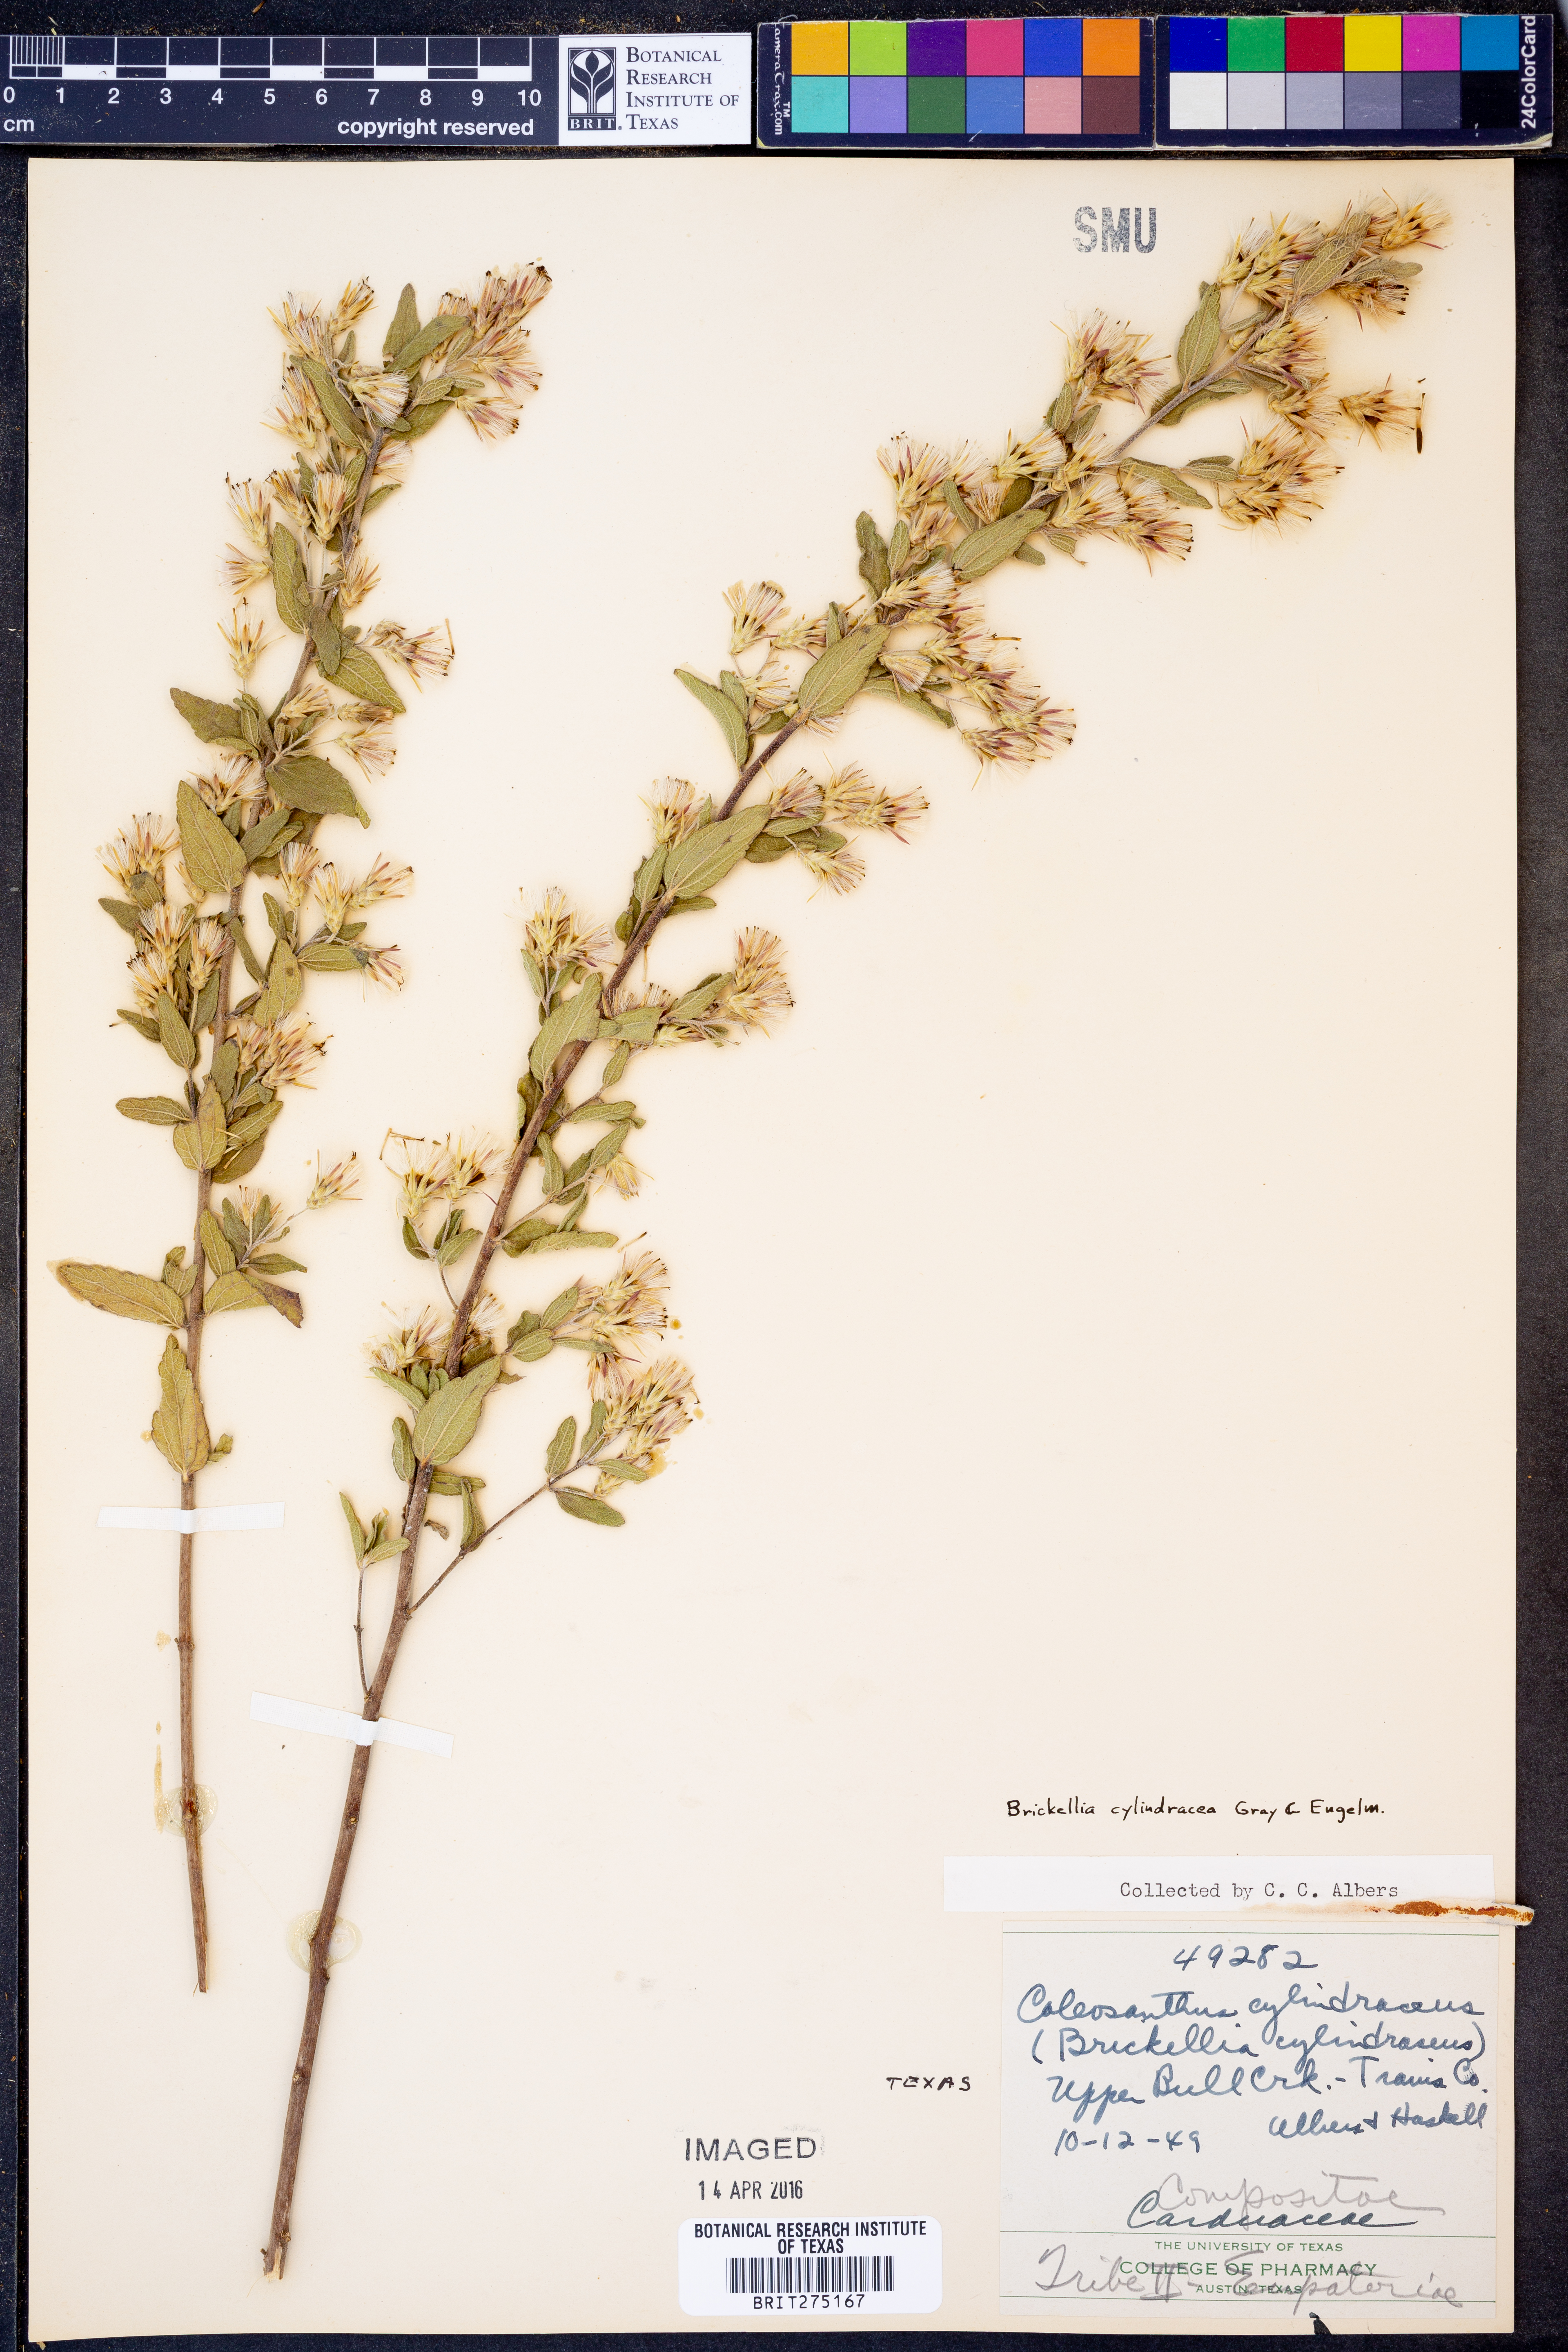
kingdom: Plantae
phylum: Tracheophyta
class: Magnoliopsida
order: Asterales
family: Asteraceae
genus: Brickellia
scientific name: Brickellia cylindracea
